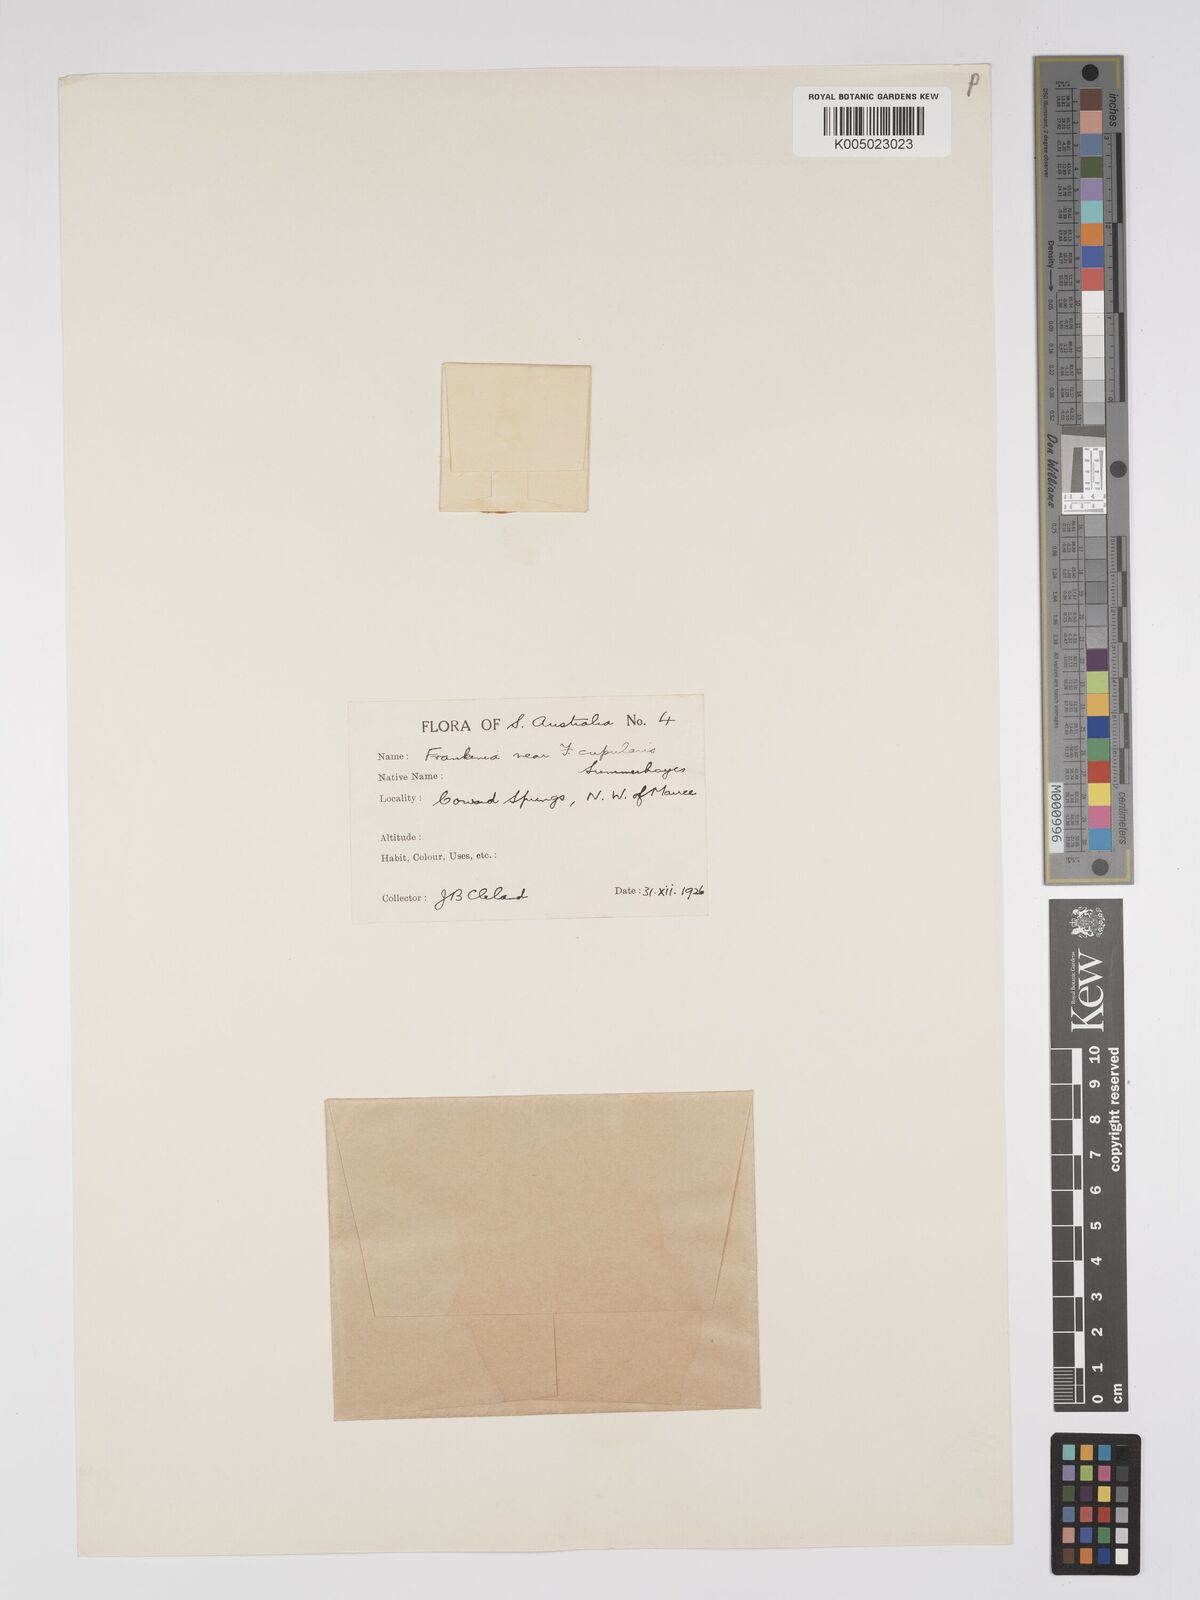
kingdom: Plantae
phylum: Tracheophyta
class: Magnoliopsida
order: Caryophyllales
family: Frankeniaceae
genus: Frankenia
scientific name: Frankenia cupularis
